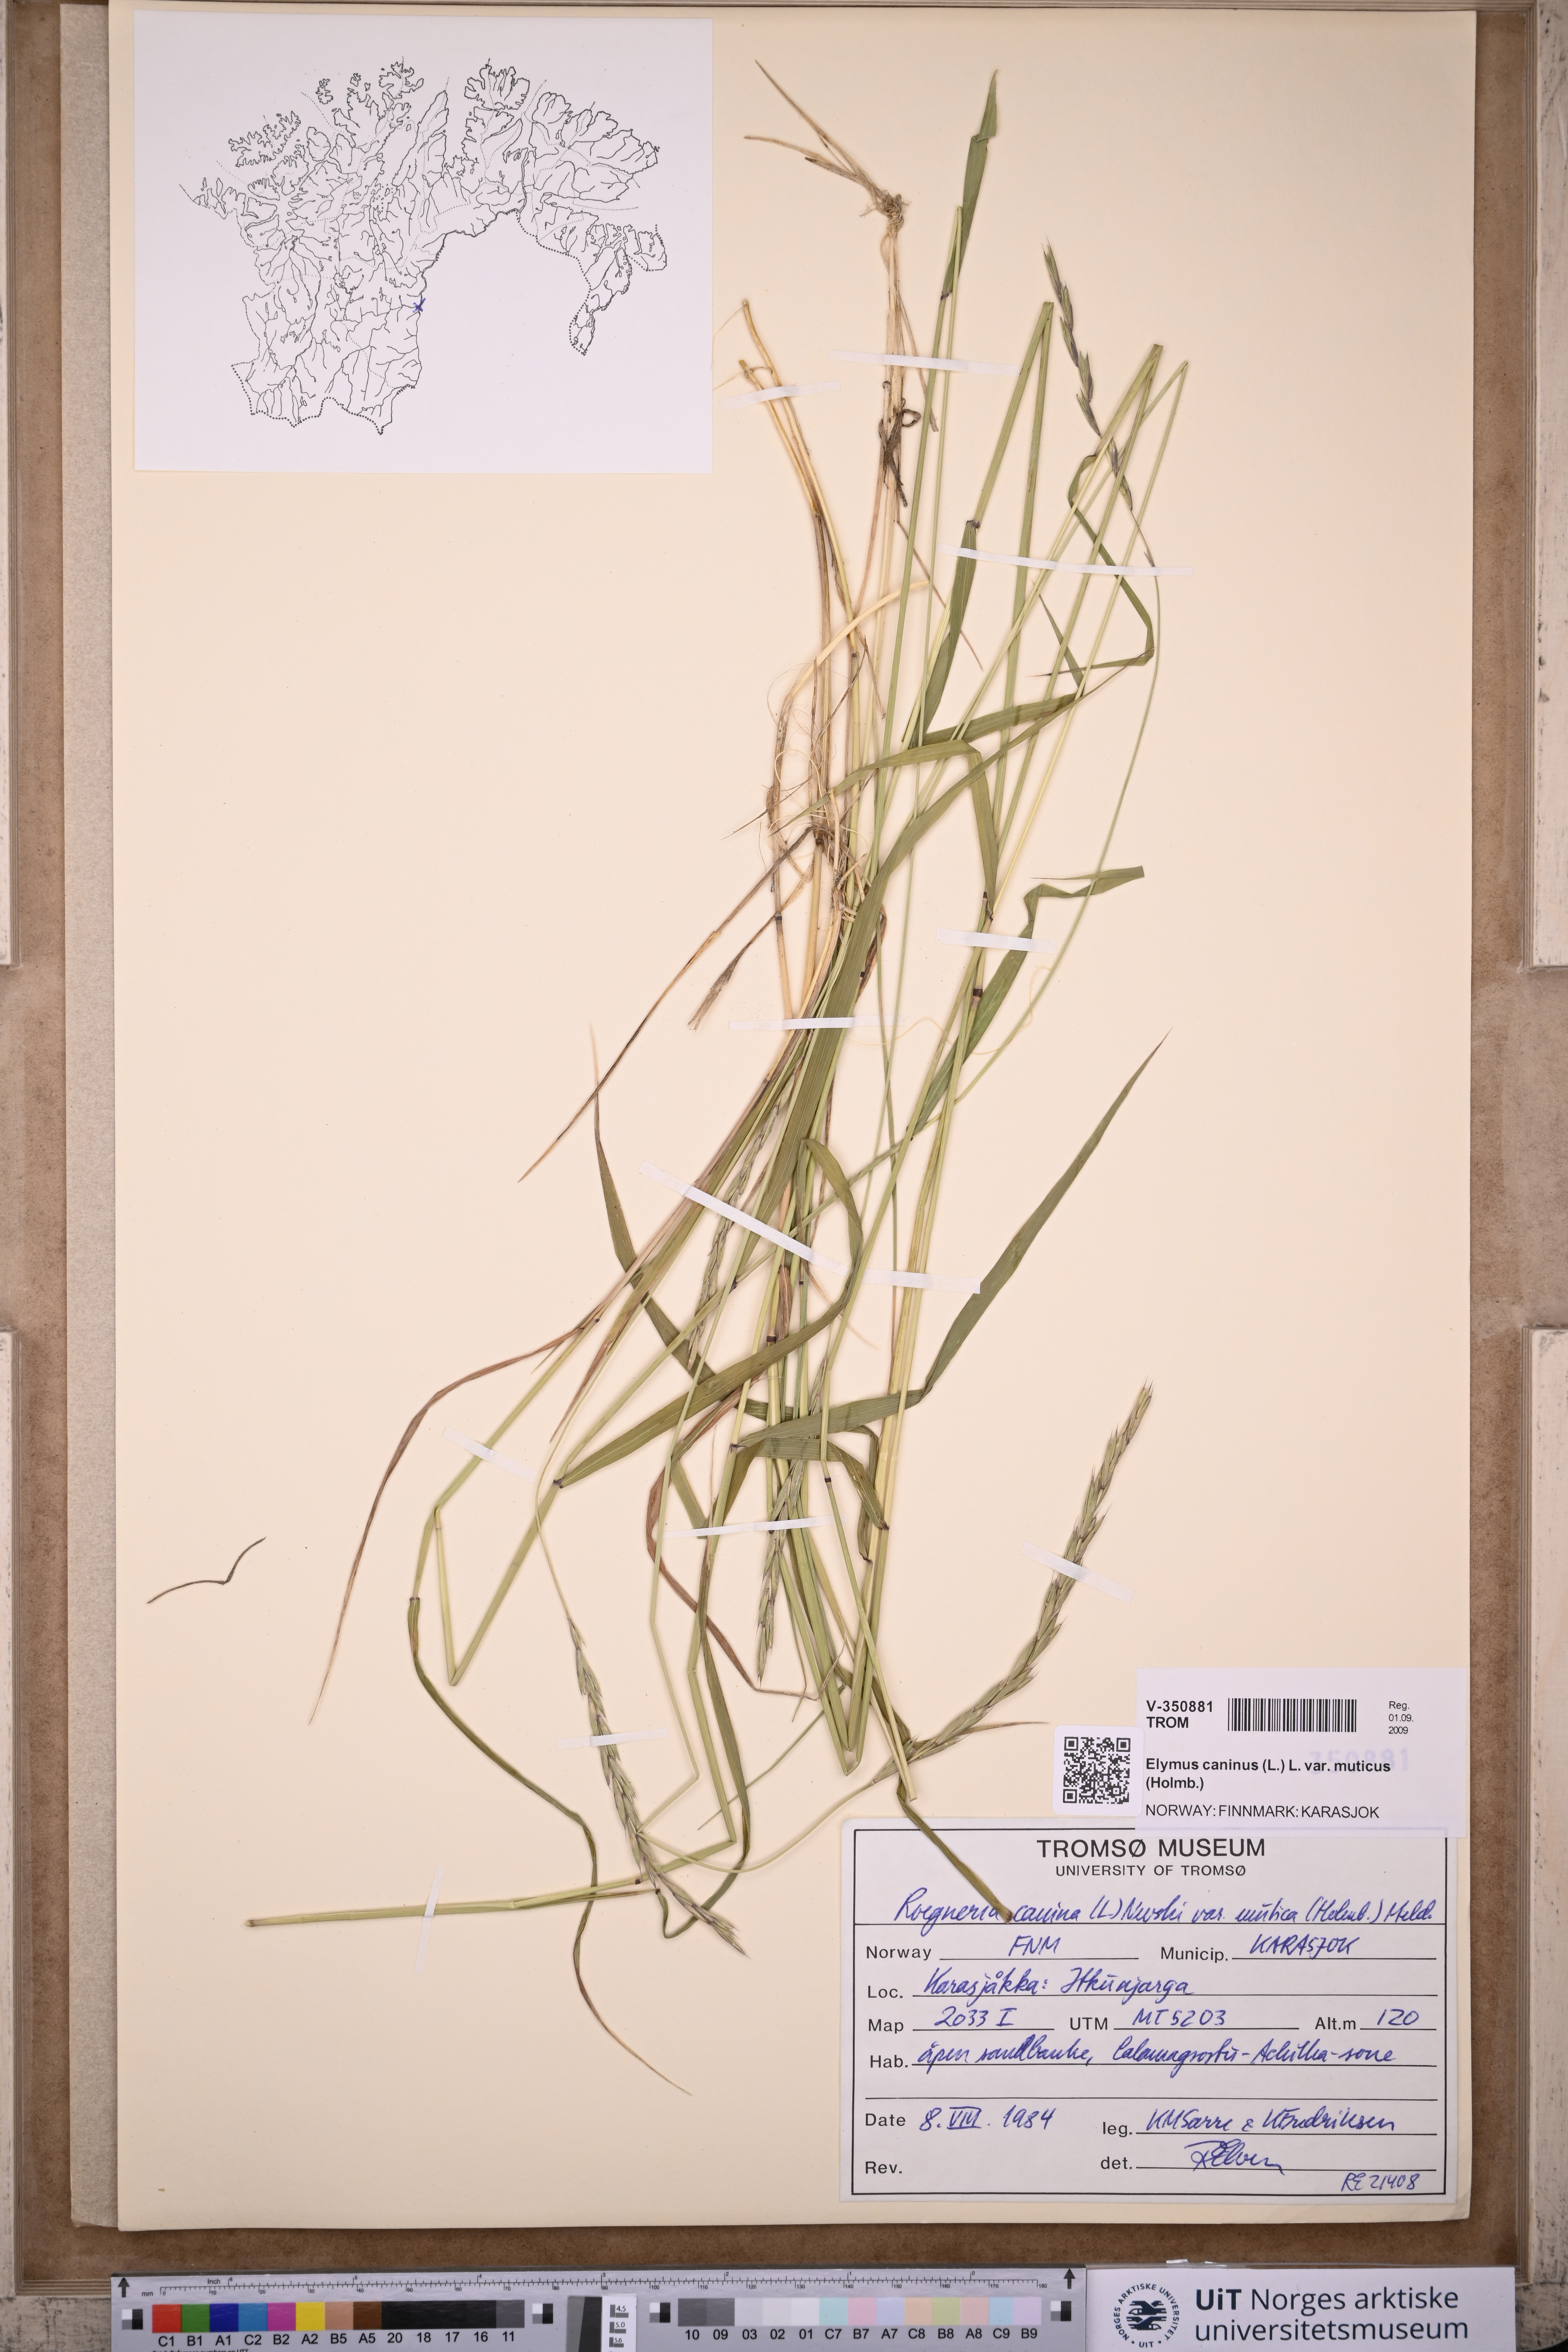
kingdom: Plantae
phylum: Tracheophyta
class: Liliopsida
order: Poales
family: Poaceae
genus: Elymus
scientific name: Elymus caninus
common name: Bearded couch
